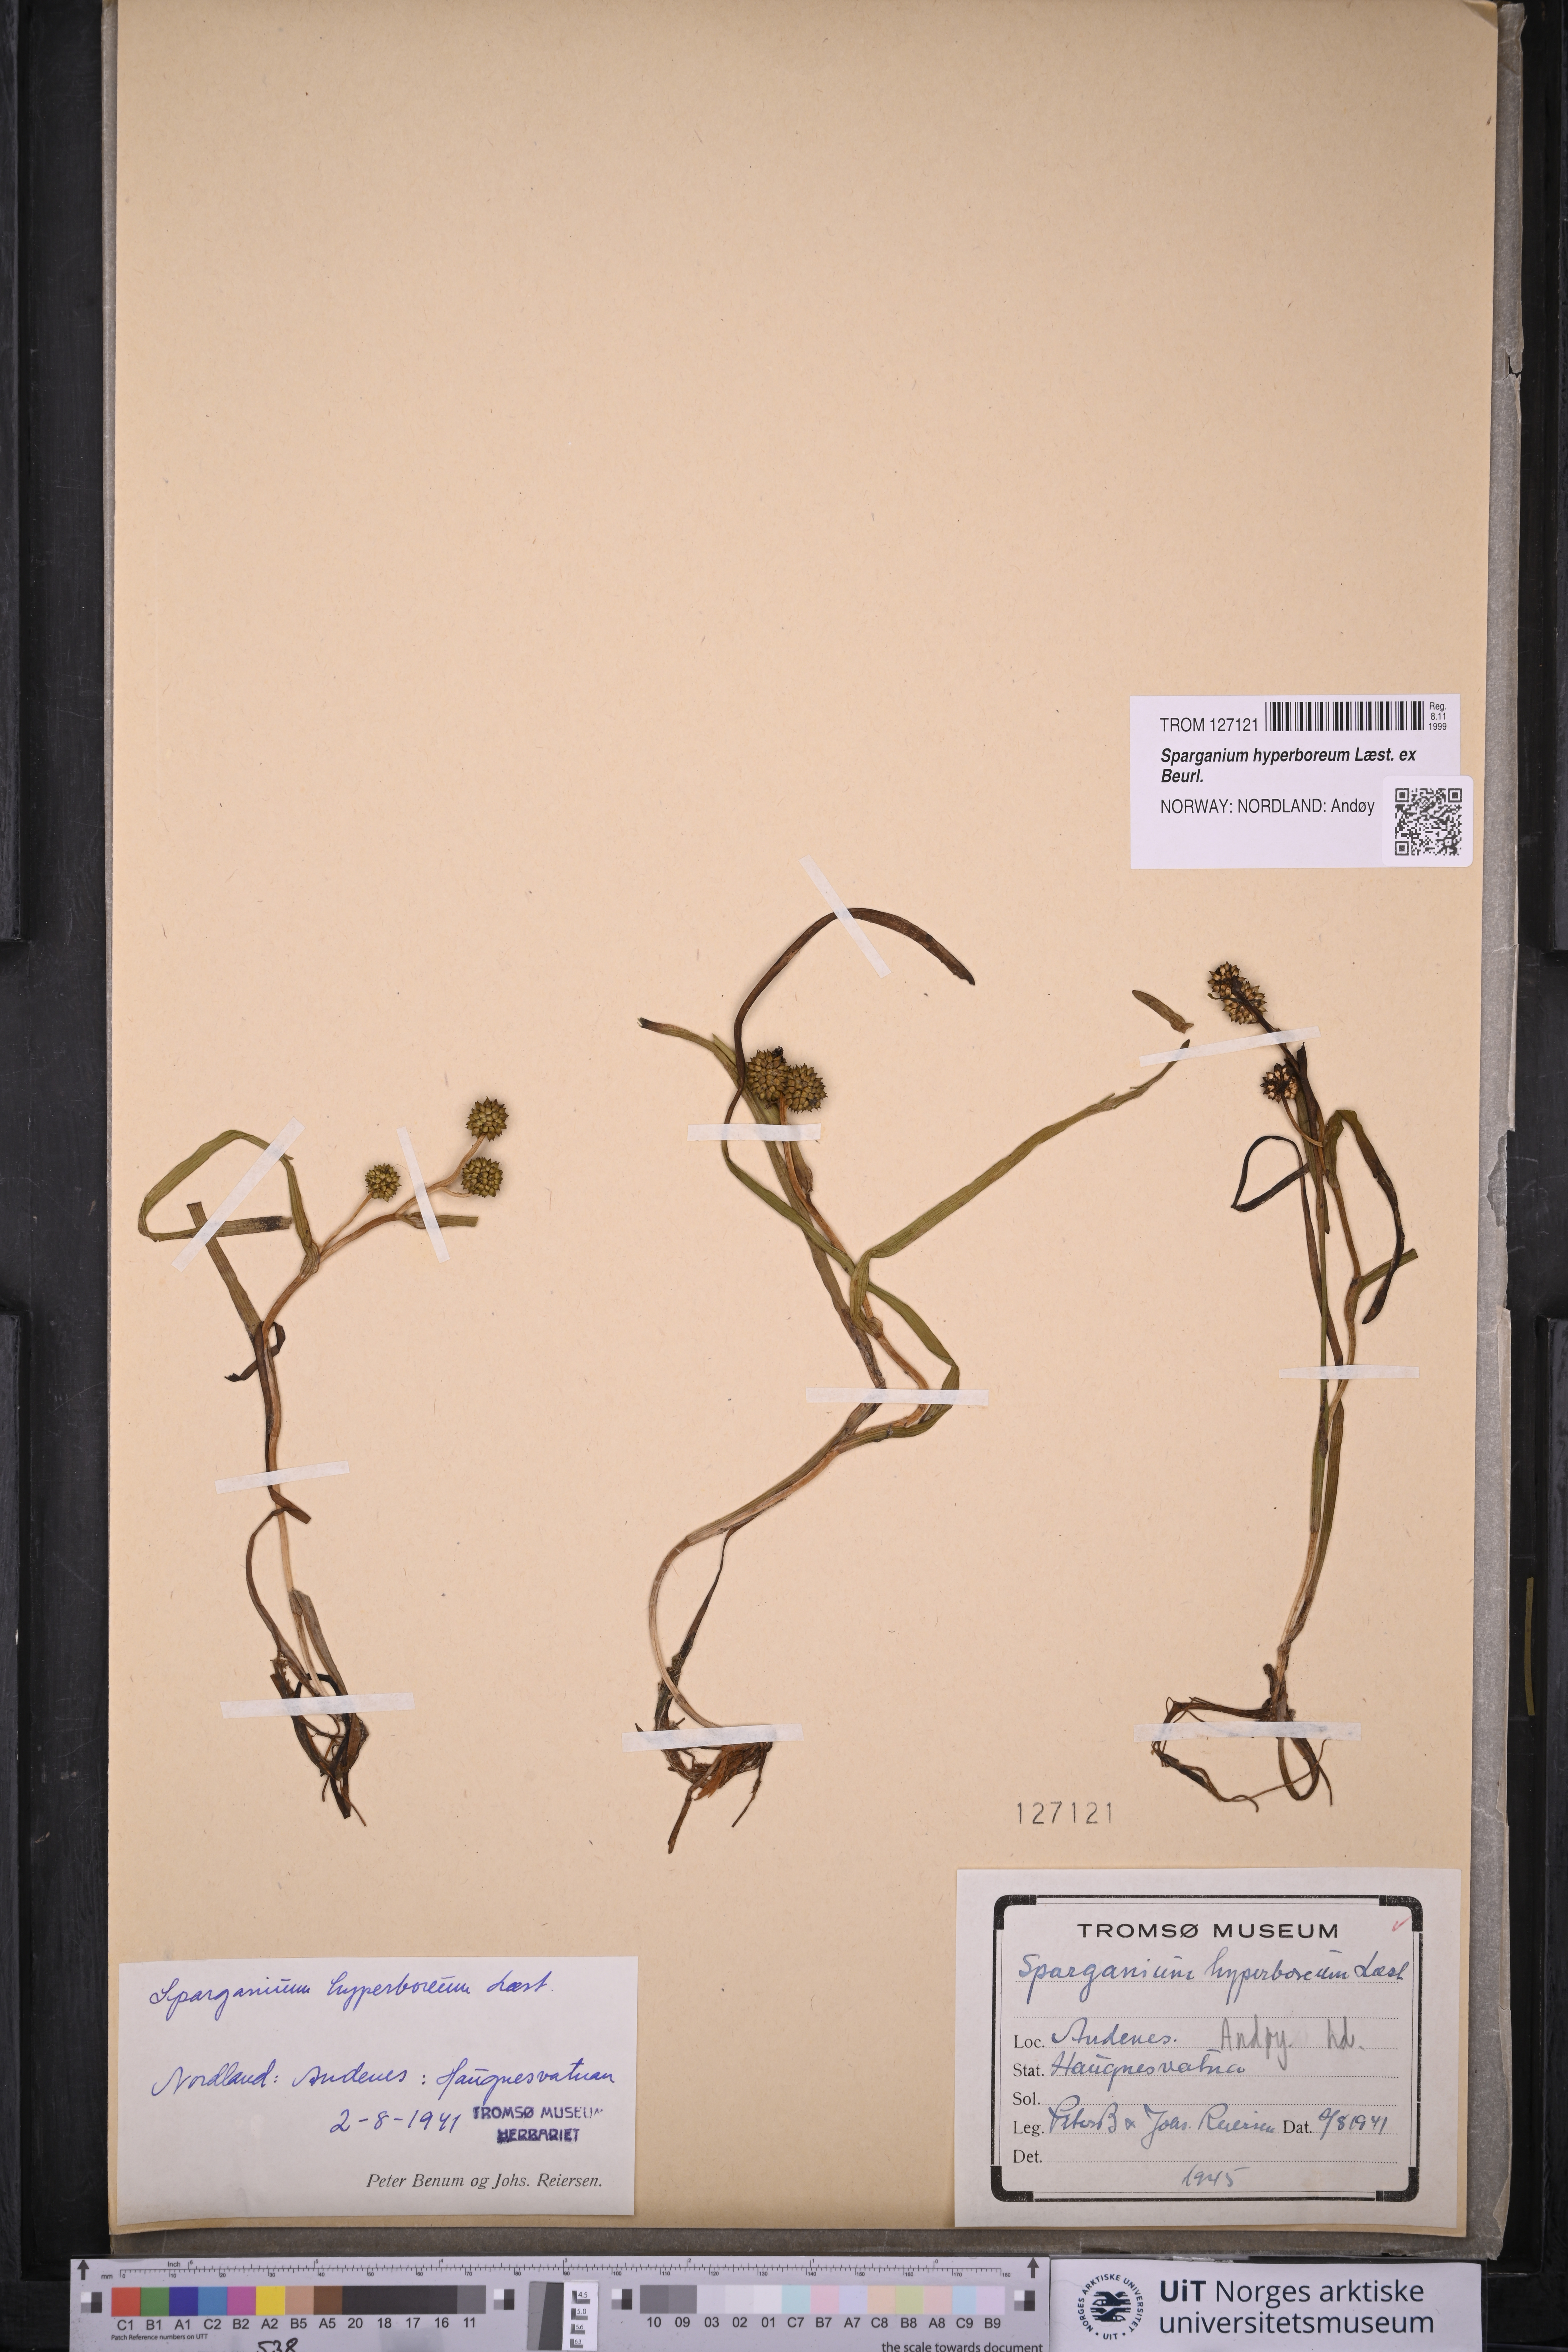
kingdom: Plantae
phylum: Tracheophyta
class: Liliopsida
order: Poales
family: Typhaceae
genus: Sparganium
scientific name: Sparganium hyperboreum
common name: Arctic burreed
